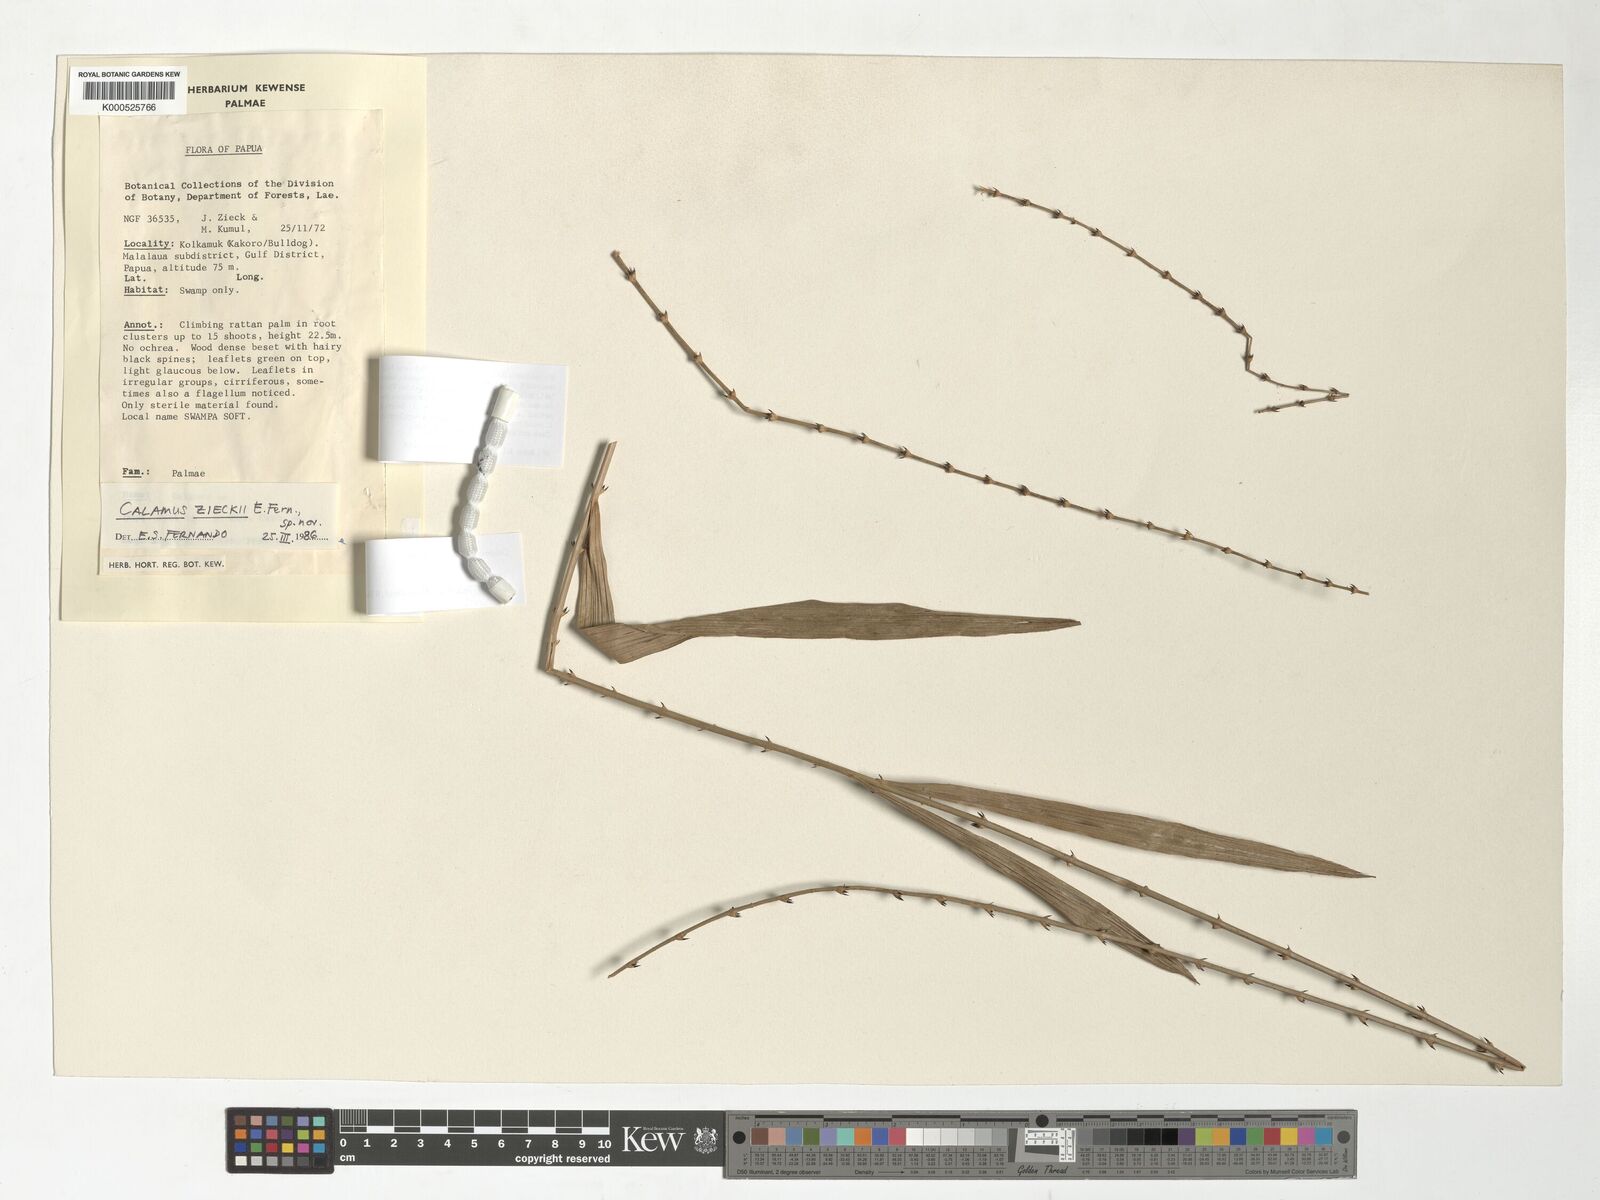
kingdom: Plantae
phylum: Tracheophyta
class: Liliopsida
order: Arecales
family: Arecaceae
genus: Calamus
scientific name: Calamus zieckii
